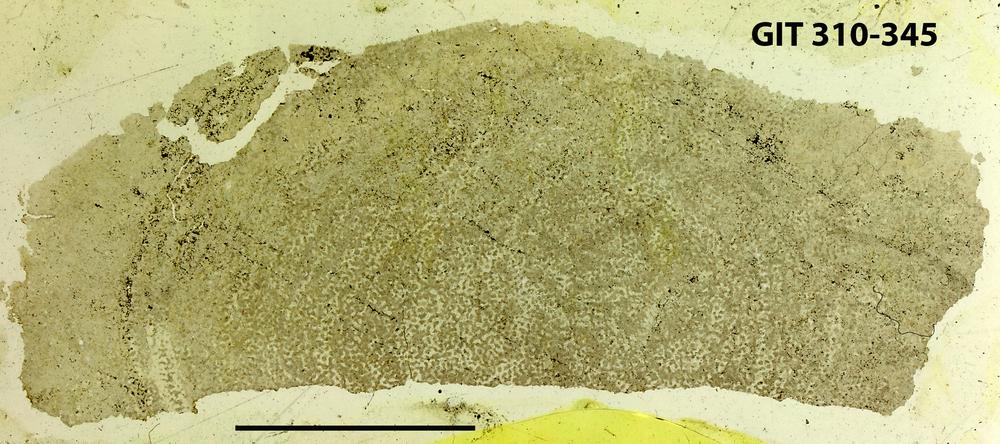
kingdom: Animalia
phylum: Porifera
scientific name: Porifera
